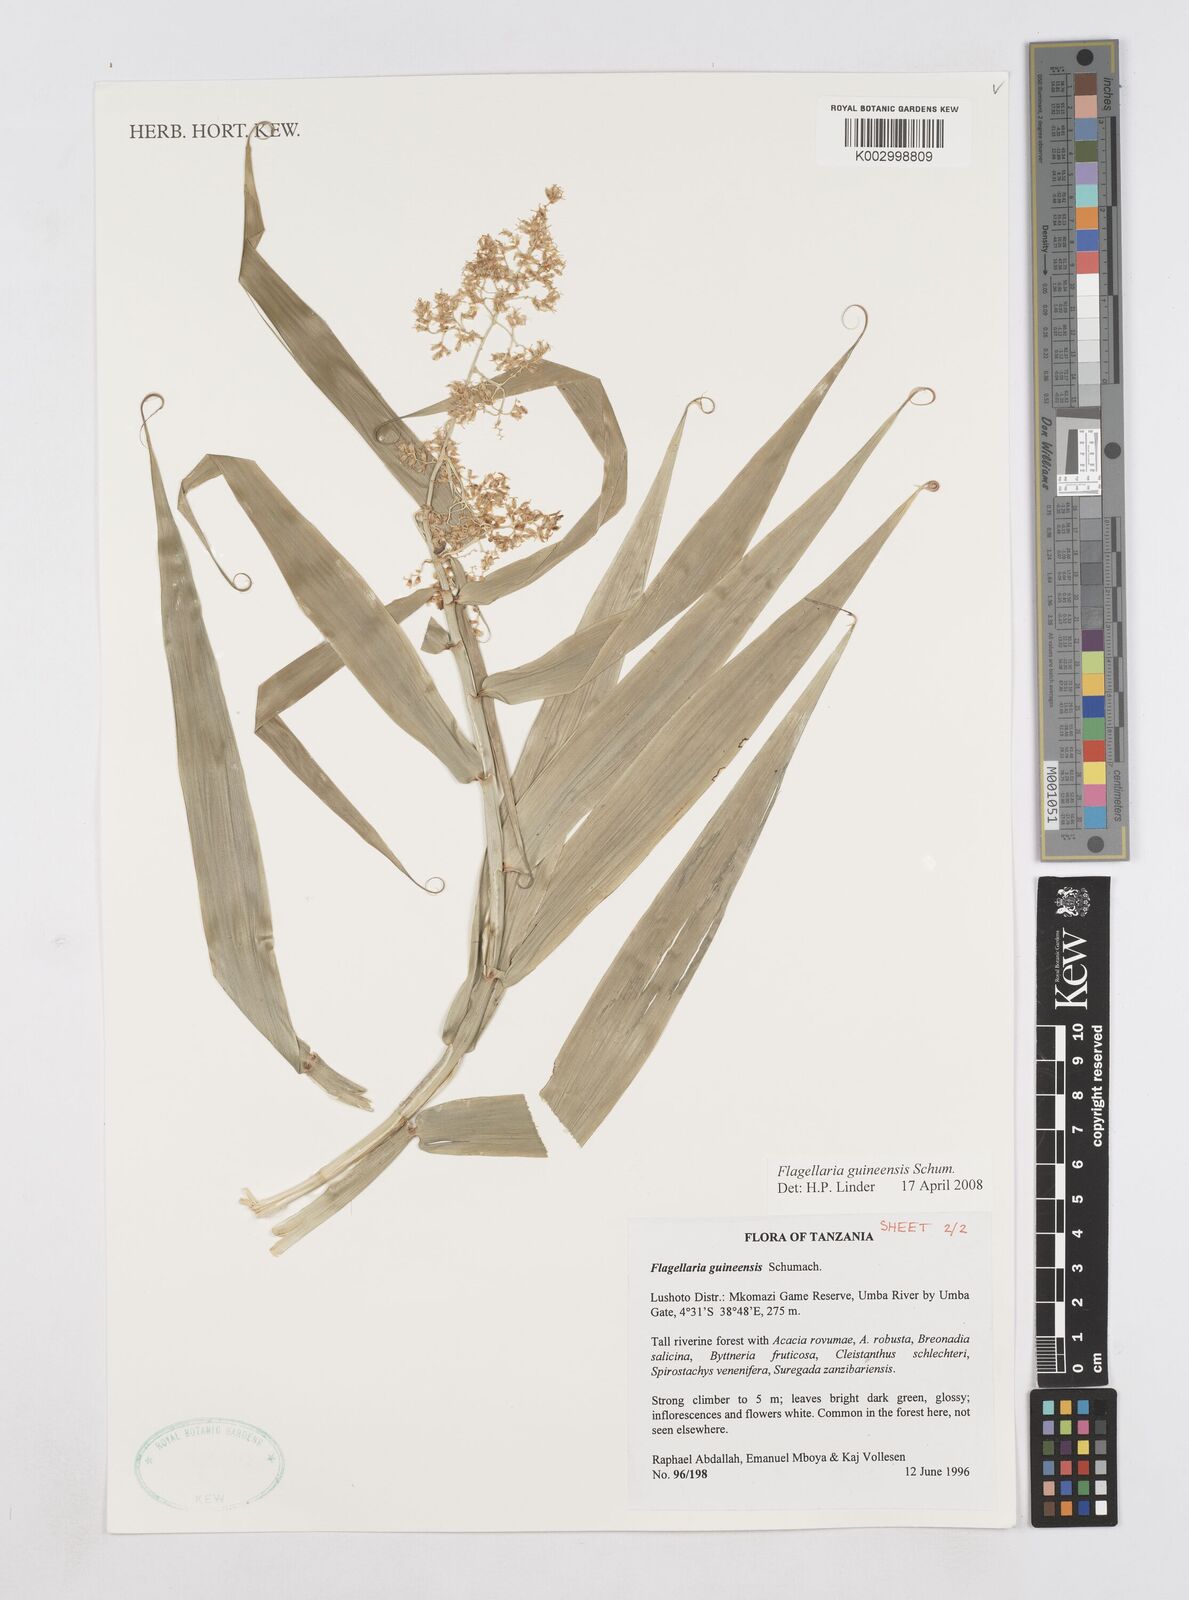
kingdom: Plantae
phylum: Tracheophyta
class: Liliopsida
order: Poales
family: Flagellariaceae
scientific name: Flagellariaceae
